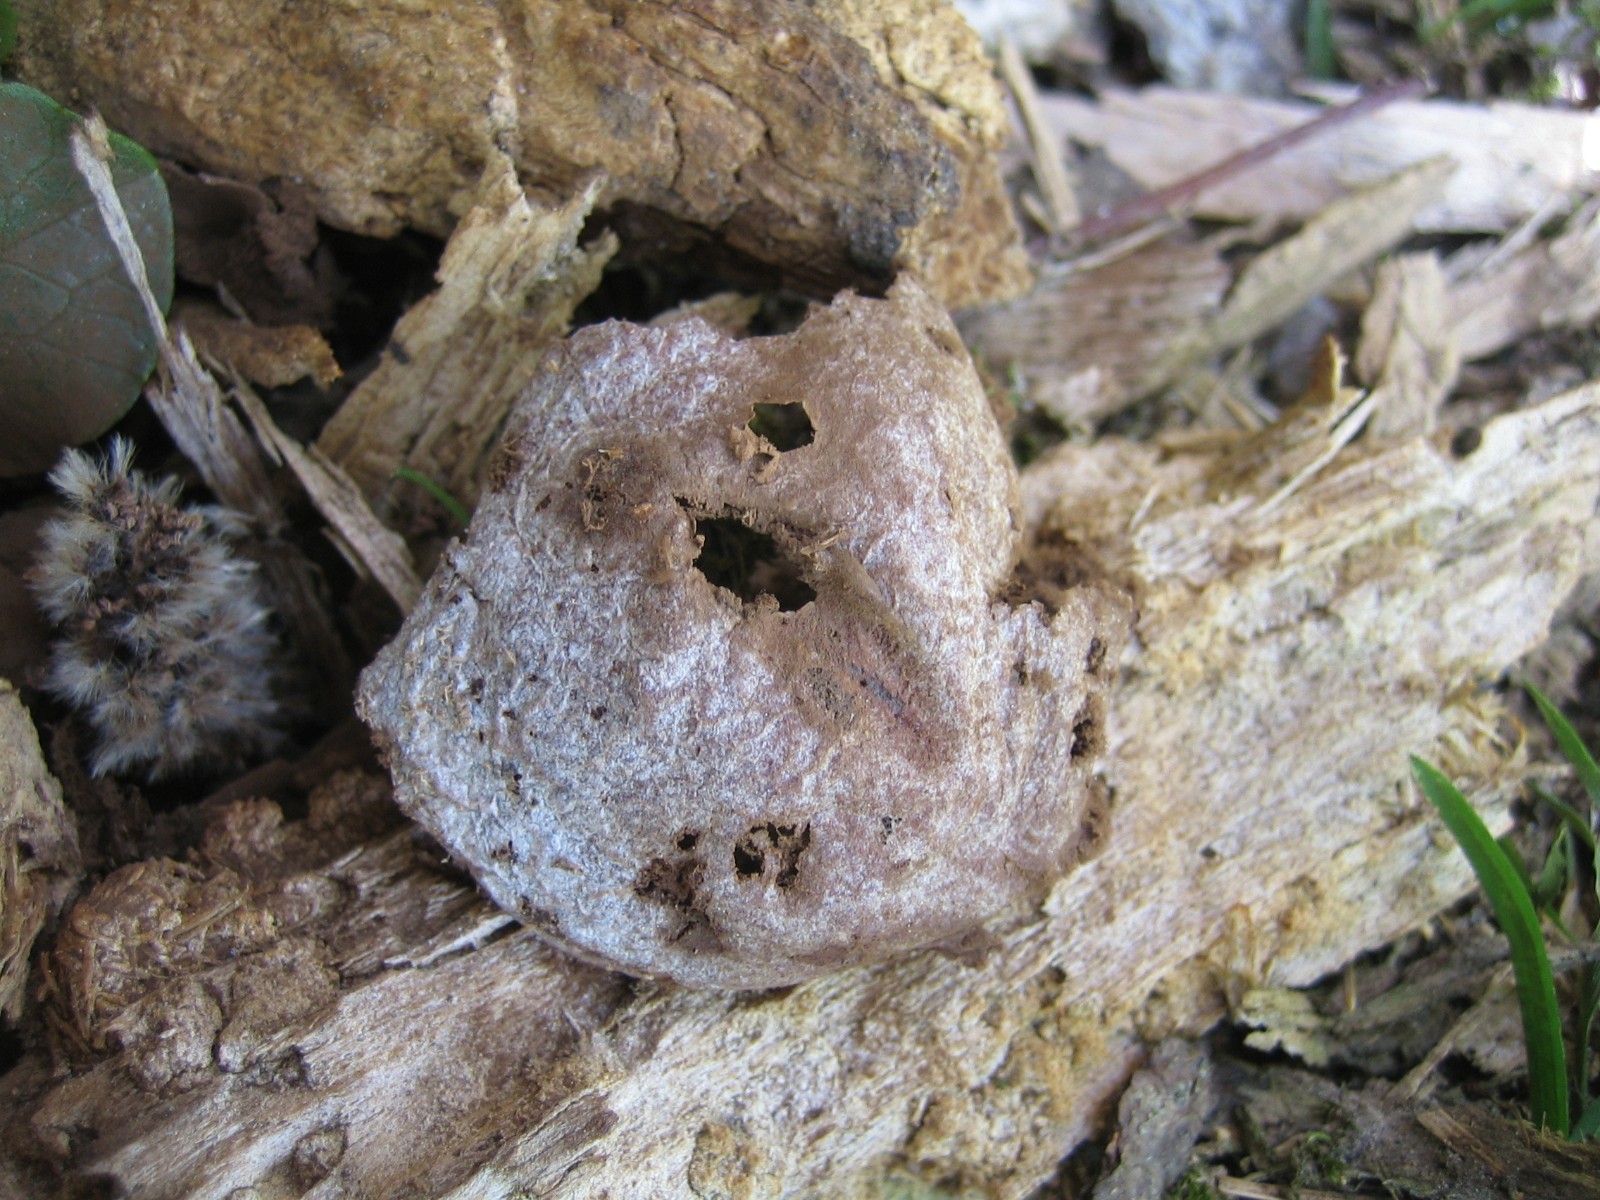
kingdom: Protozoa
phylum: Mycetozoa
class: Myxomycetes
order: Cribrariales
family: Tubiferaceae
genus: Reticularia
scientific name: Reticularia lycoperdon
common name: skinnende støvpude
